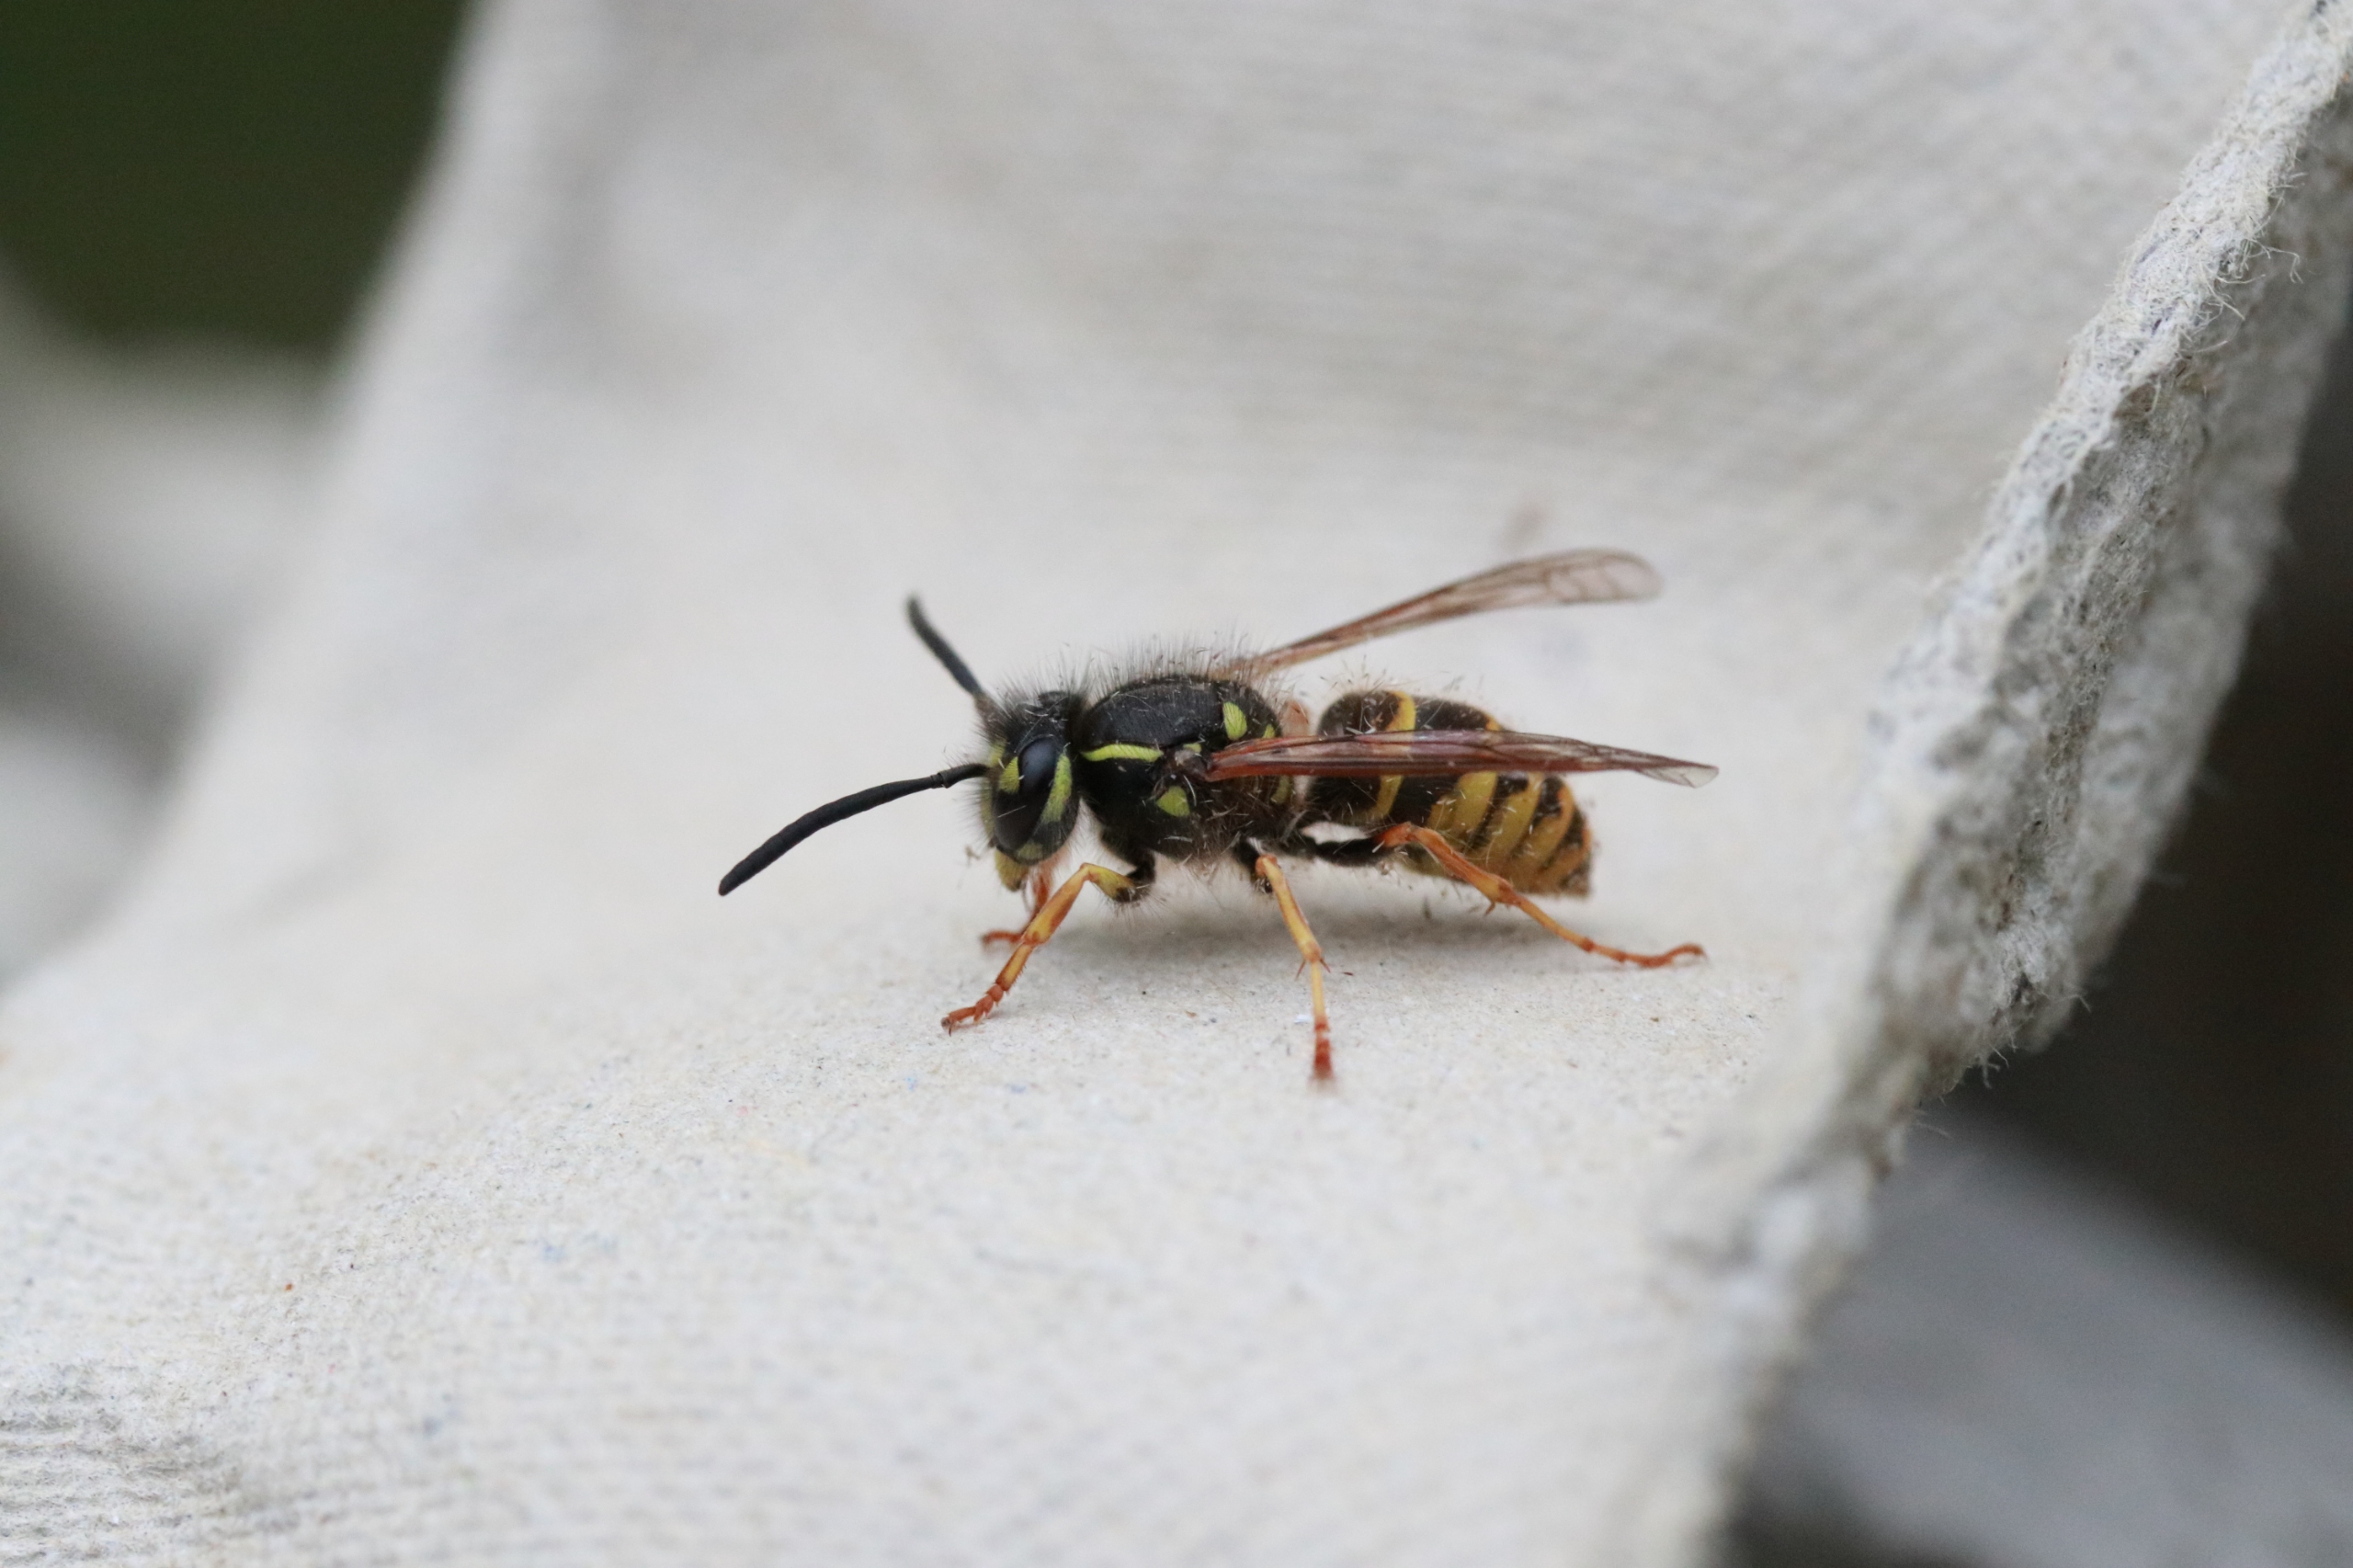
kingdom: Animalia
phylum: Arthropoda
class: Insecta
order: Hymenoptera
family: Vespidae
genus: Vespula
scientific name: Vespula vulgaris
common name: Almindelig gedehams
